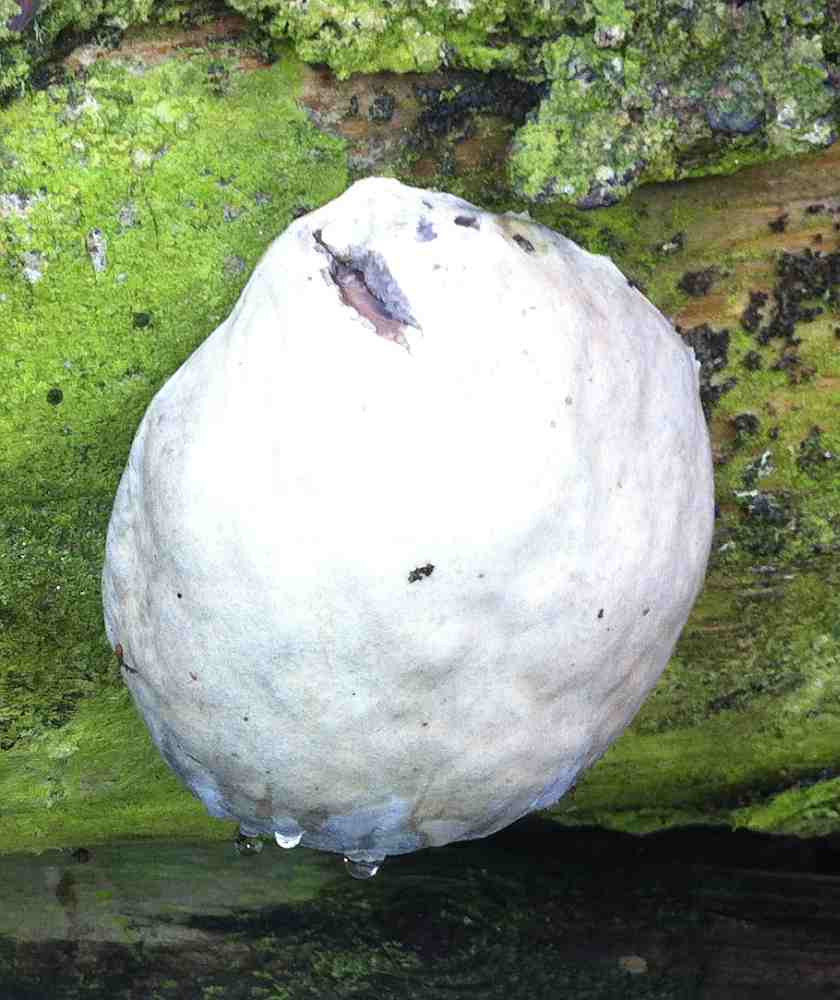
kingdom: Protozoa
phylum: Mycetozoa
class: Myxomycetes
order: Cribrariales
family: Tubiferaceae
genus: Reticularia
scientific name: Reticularia lycoperdon
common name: skinnende støvpude
